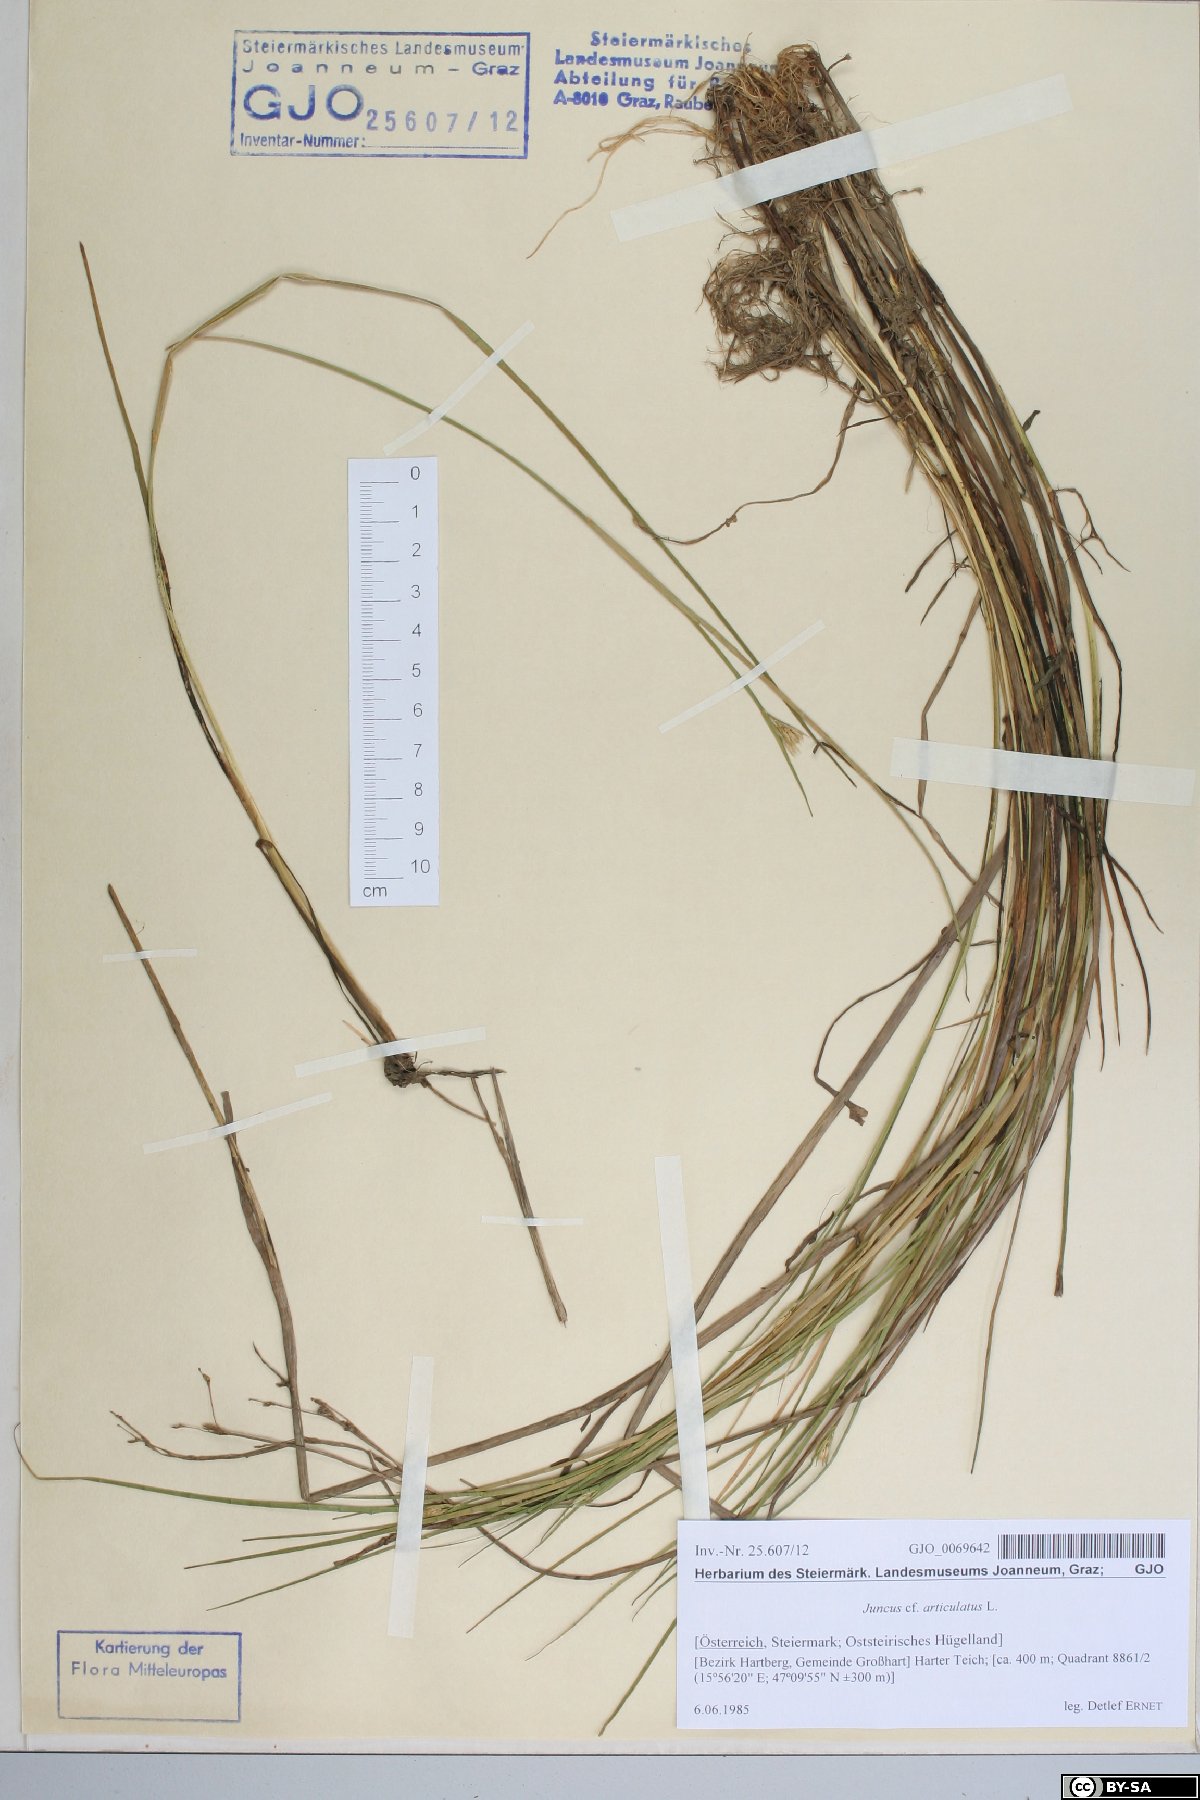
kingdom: Plantae
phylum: Tracheophyta
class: Liliopsida
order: Poales
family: Juncaceae
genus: Juncus
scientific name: Juncus articulatus
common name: Jointed rush
